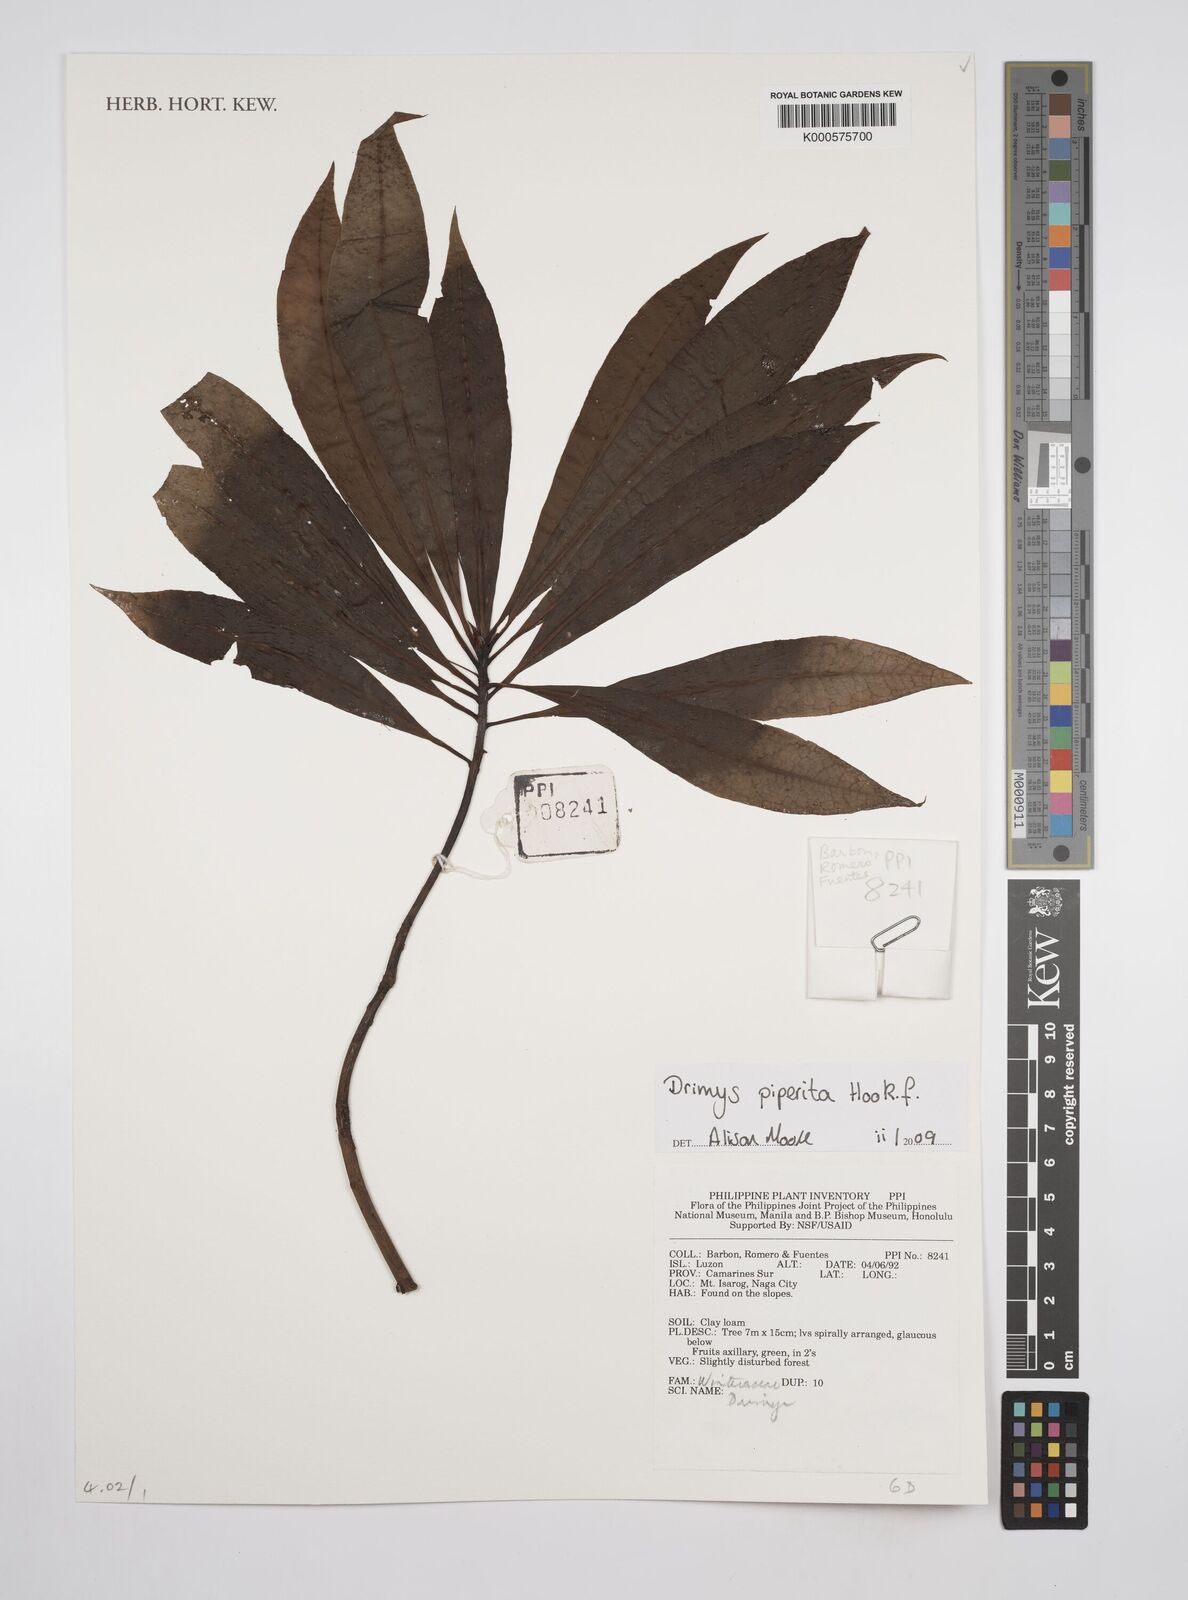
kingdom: Plantae
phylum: Tracheophyta
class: Magnoliopsida
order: Canellales
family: Winteraceae
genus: Drimys
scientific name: Drimys piperita
